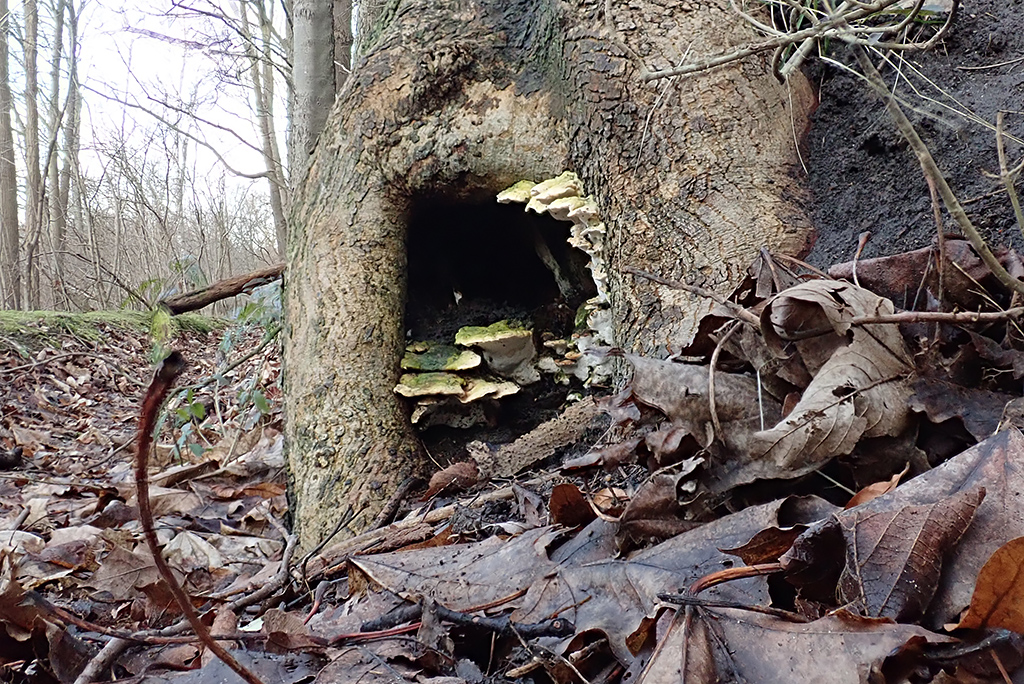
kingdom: Fungi
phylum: Basidiomycota
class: Agaricomycetes
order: Hymenochaetales
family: Oxyporaceae
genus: Oxyporus
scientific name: Oxyporus populinus
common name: sammenvokset trylleporesvamp
